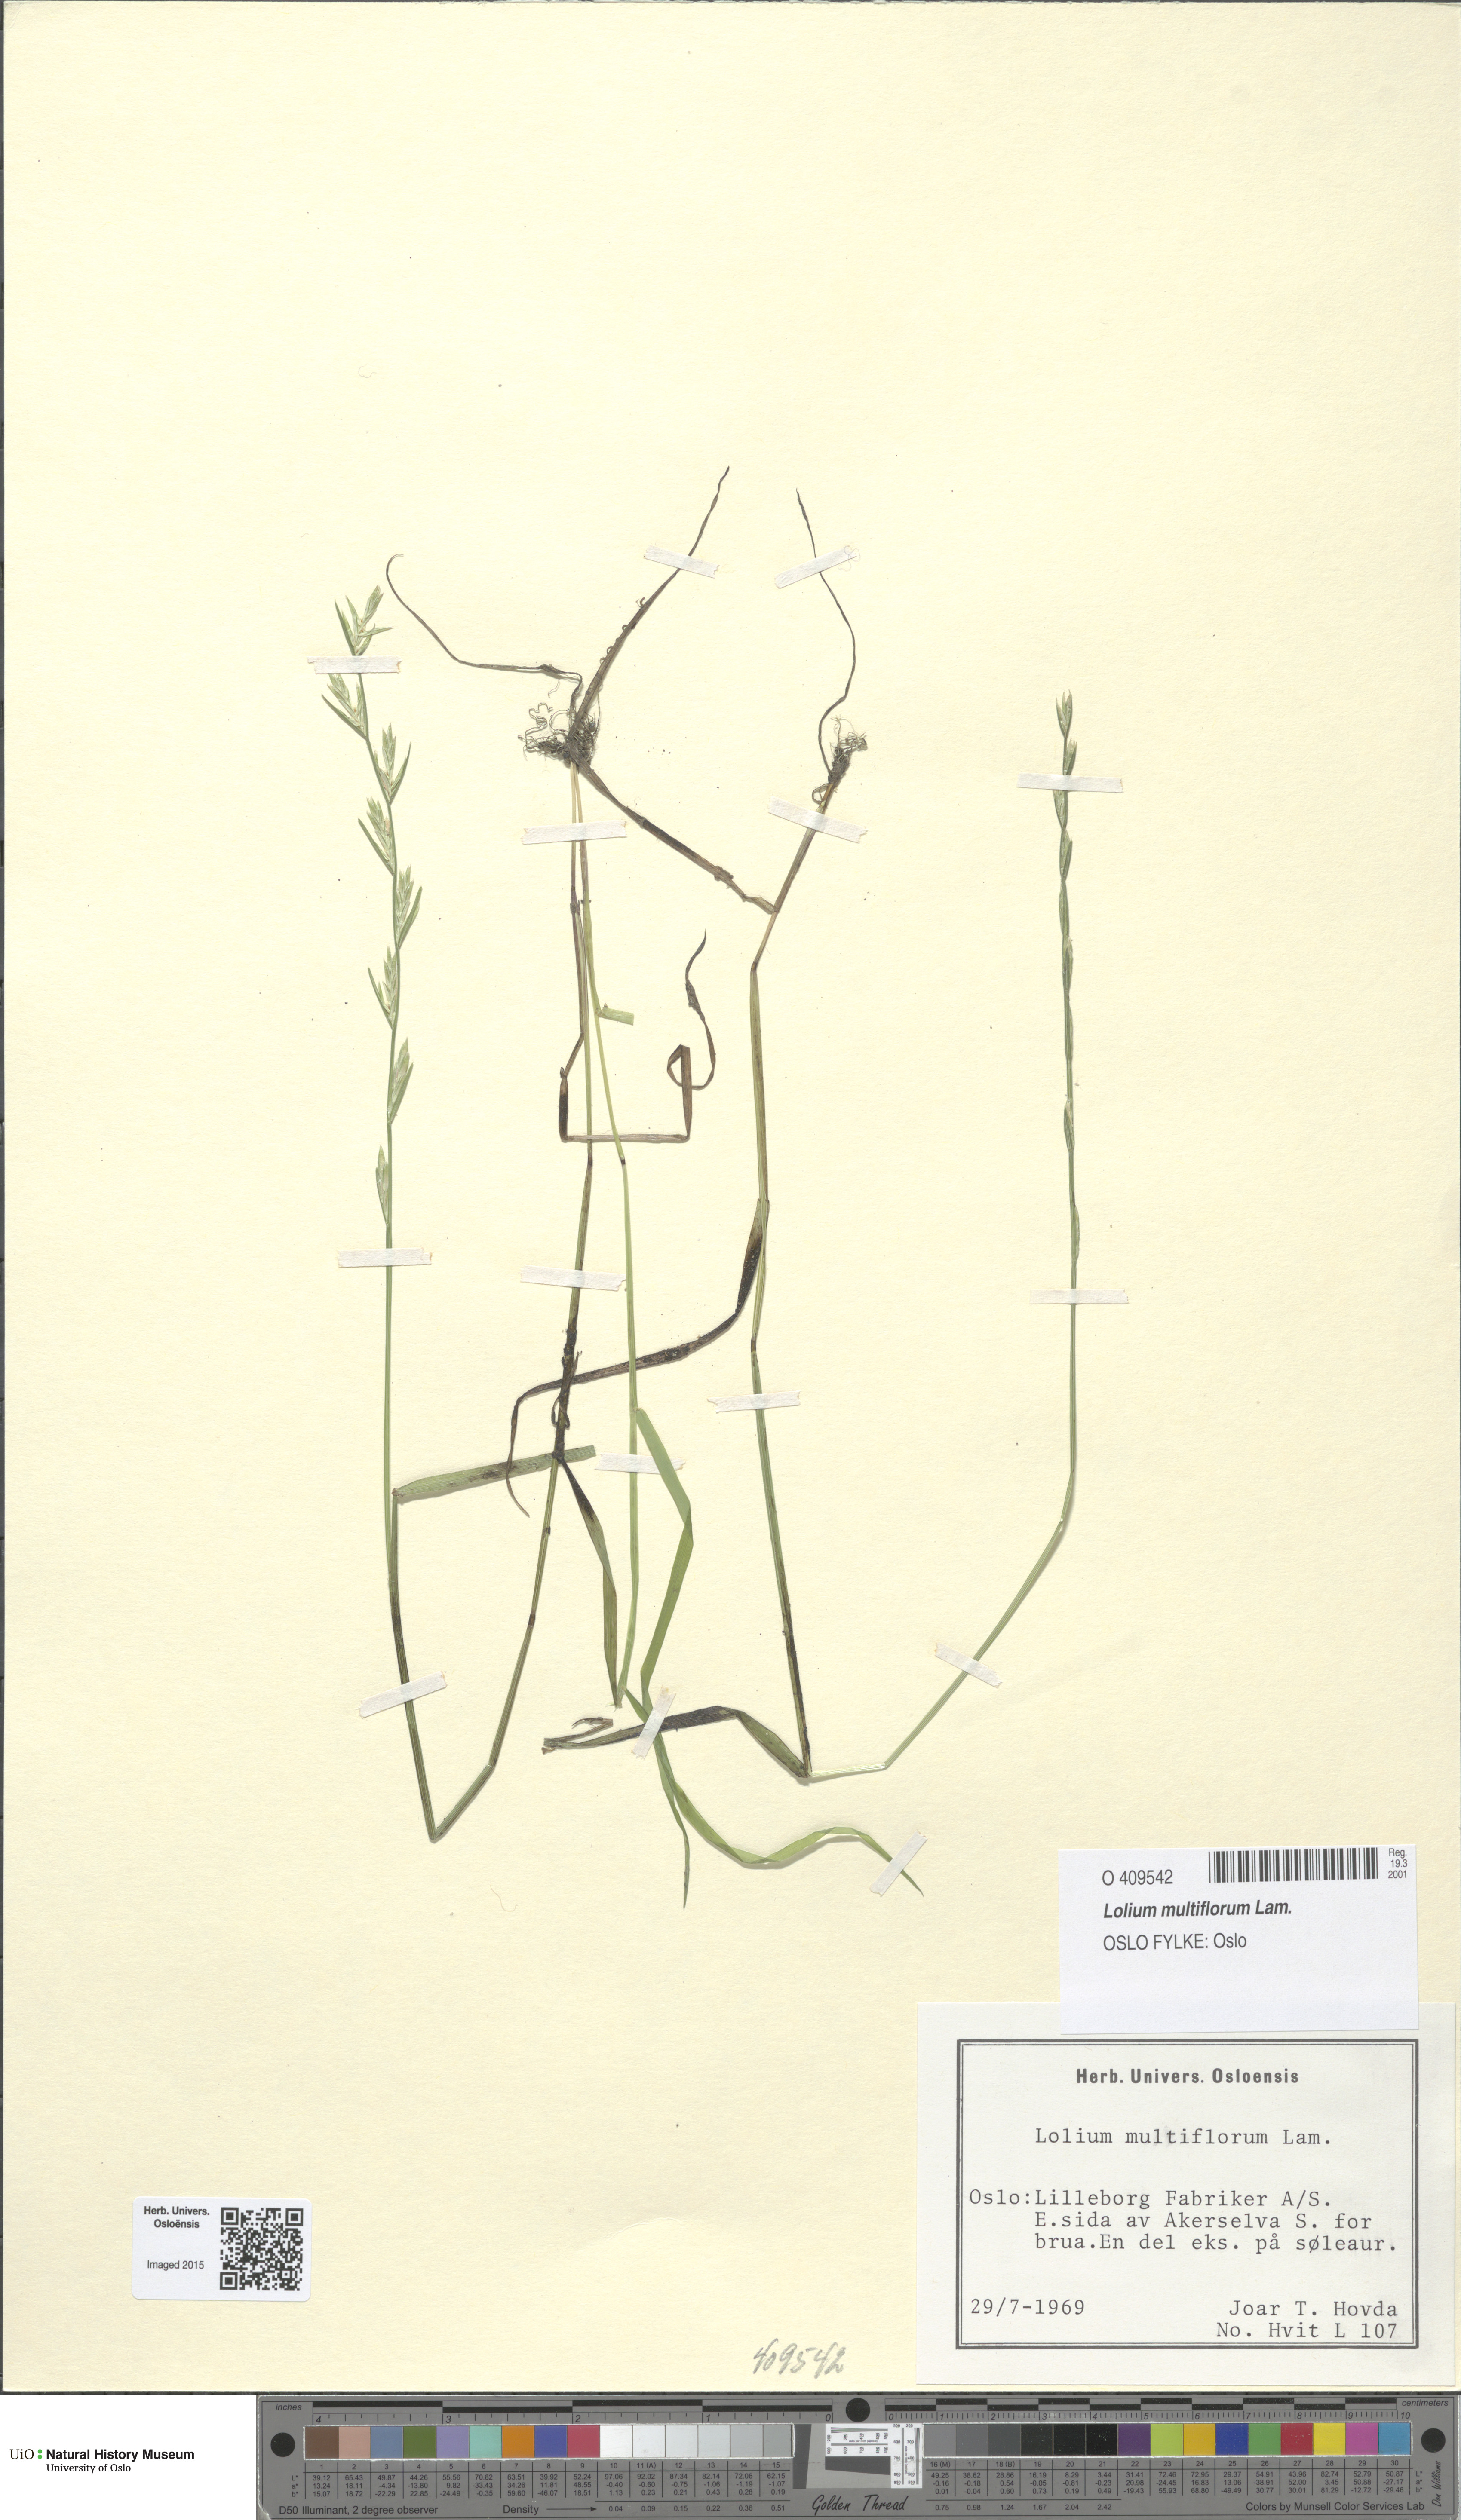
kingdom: Plantae
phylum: Tracheophyta
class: Liliopsida
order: Poales
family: Poaceae
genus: Lolium
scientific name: Lolium multiflorum
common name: Annual ryegrass
